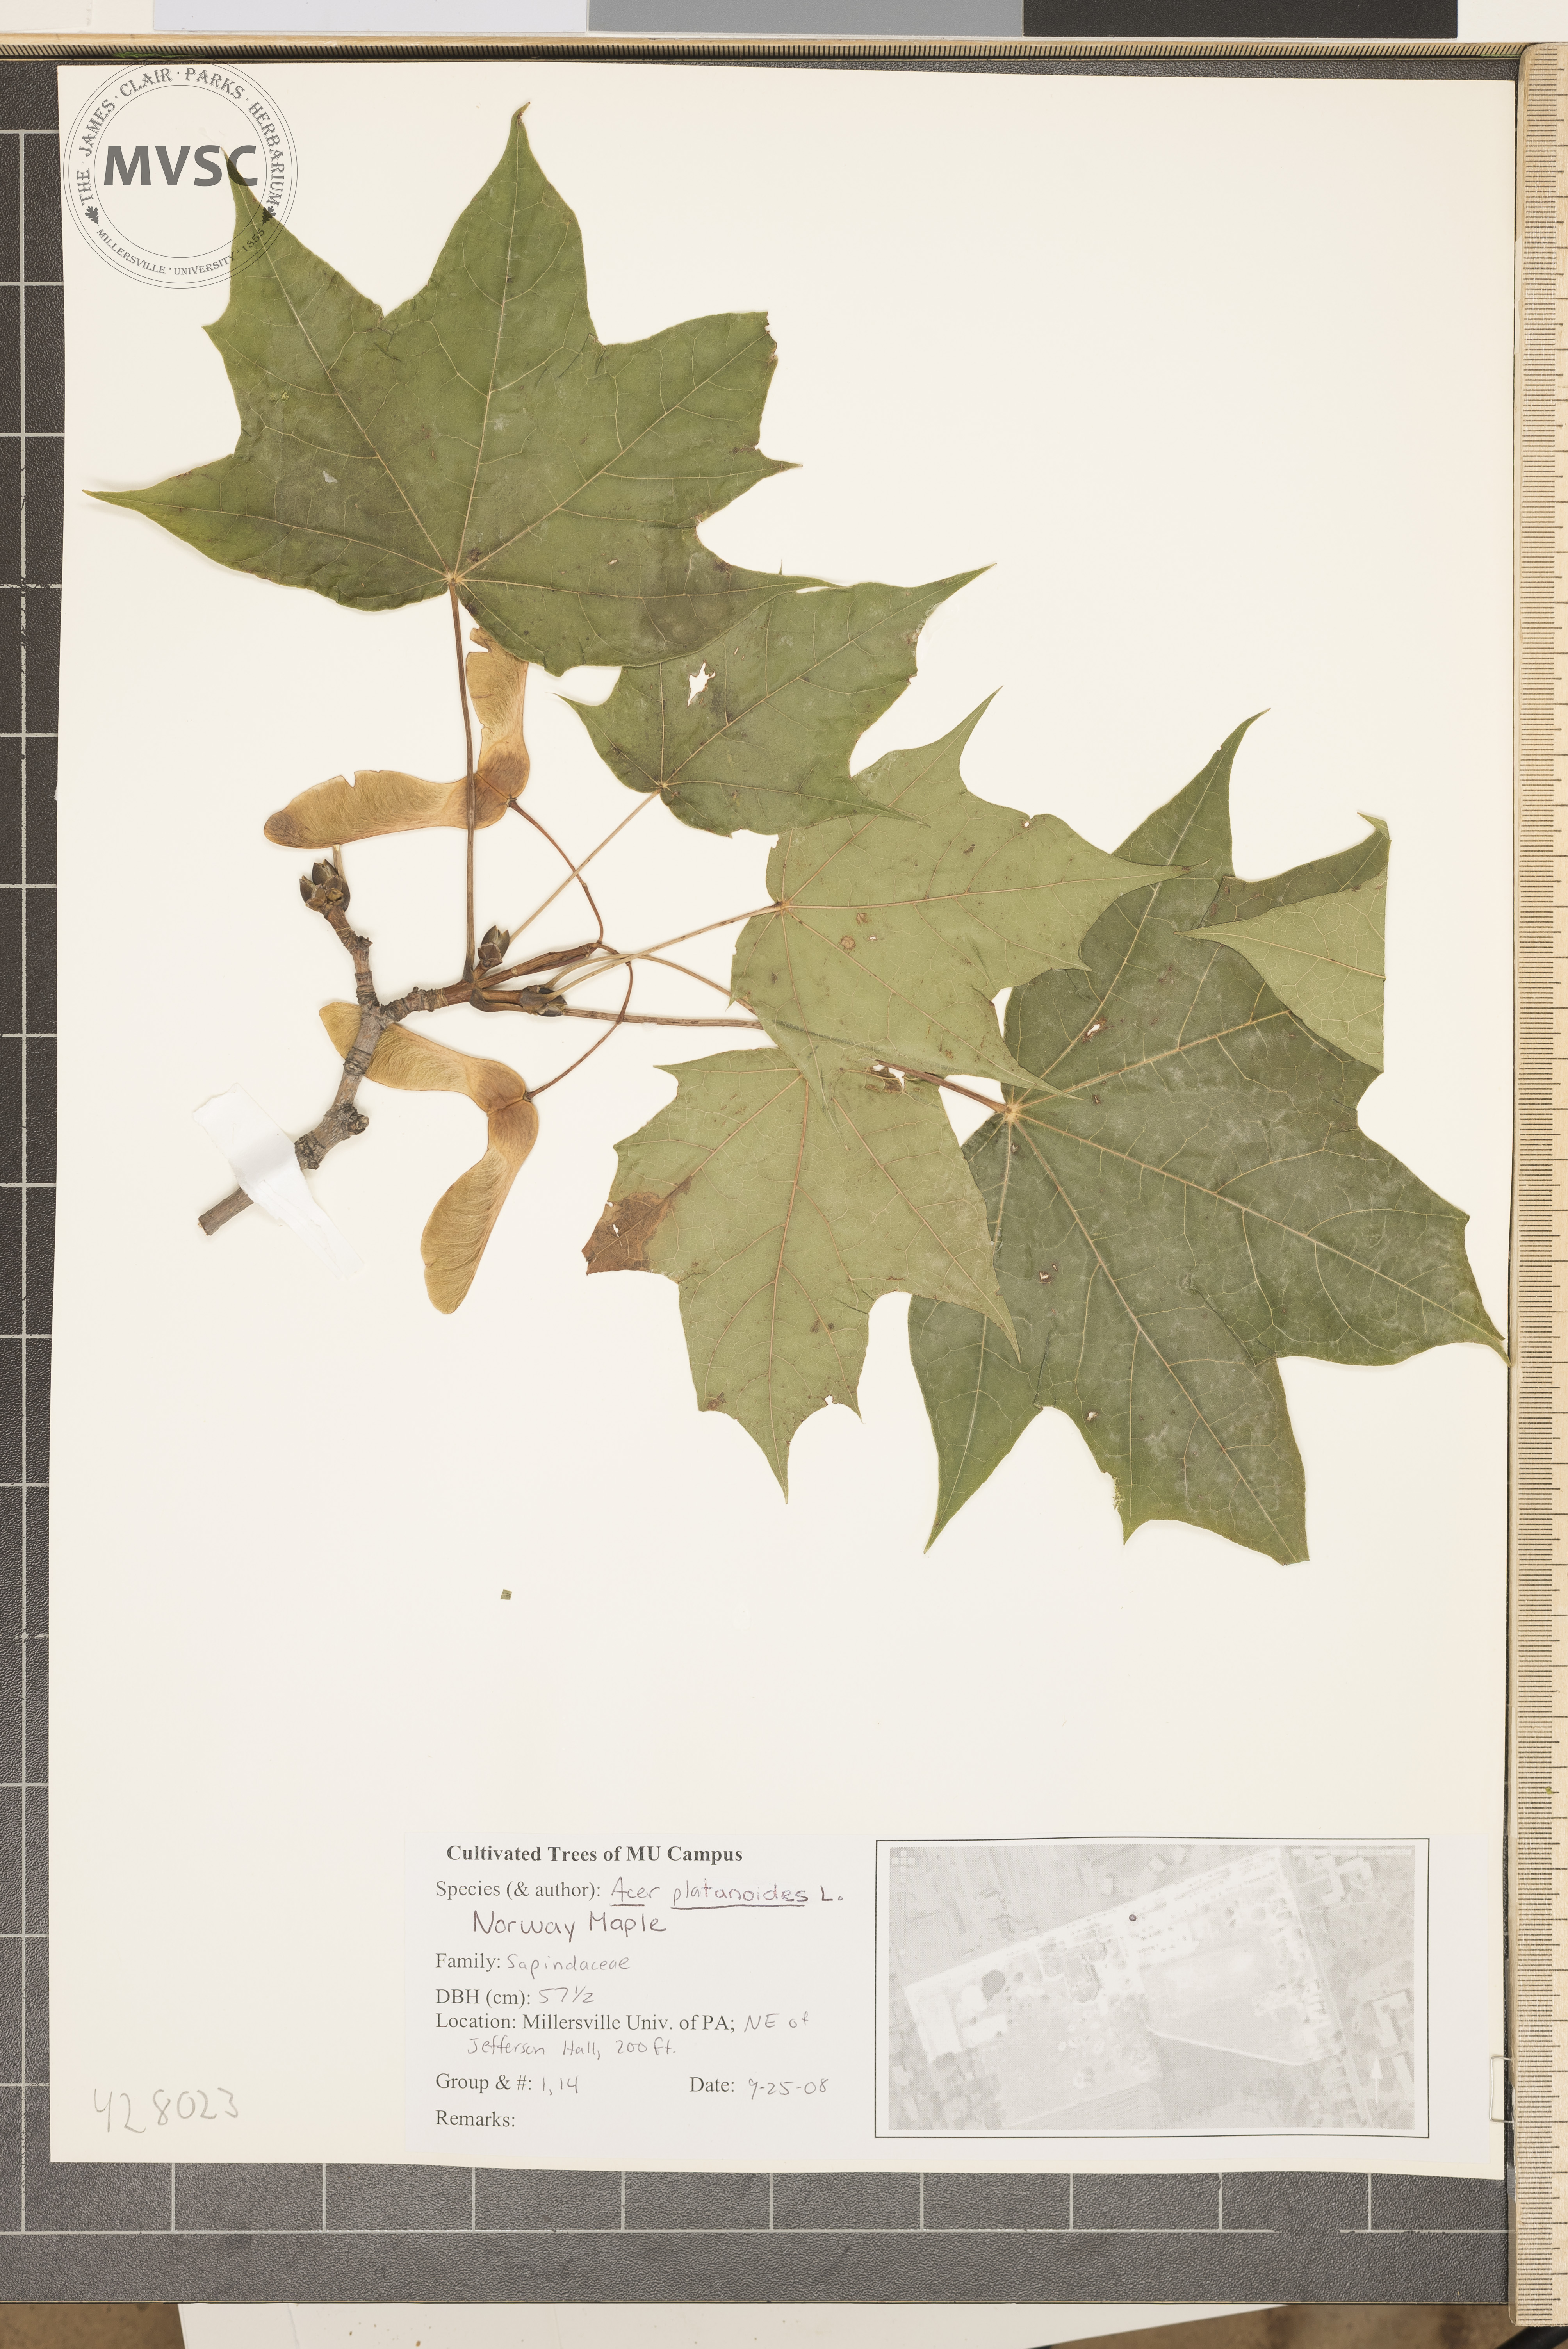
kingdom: Plantae
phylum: Tracheophyta
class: Magnoliopsida
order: Sapindales
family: Sapindaceae
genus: Acer
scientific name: Acer platanoides
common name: Norway Maple
